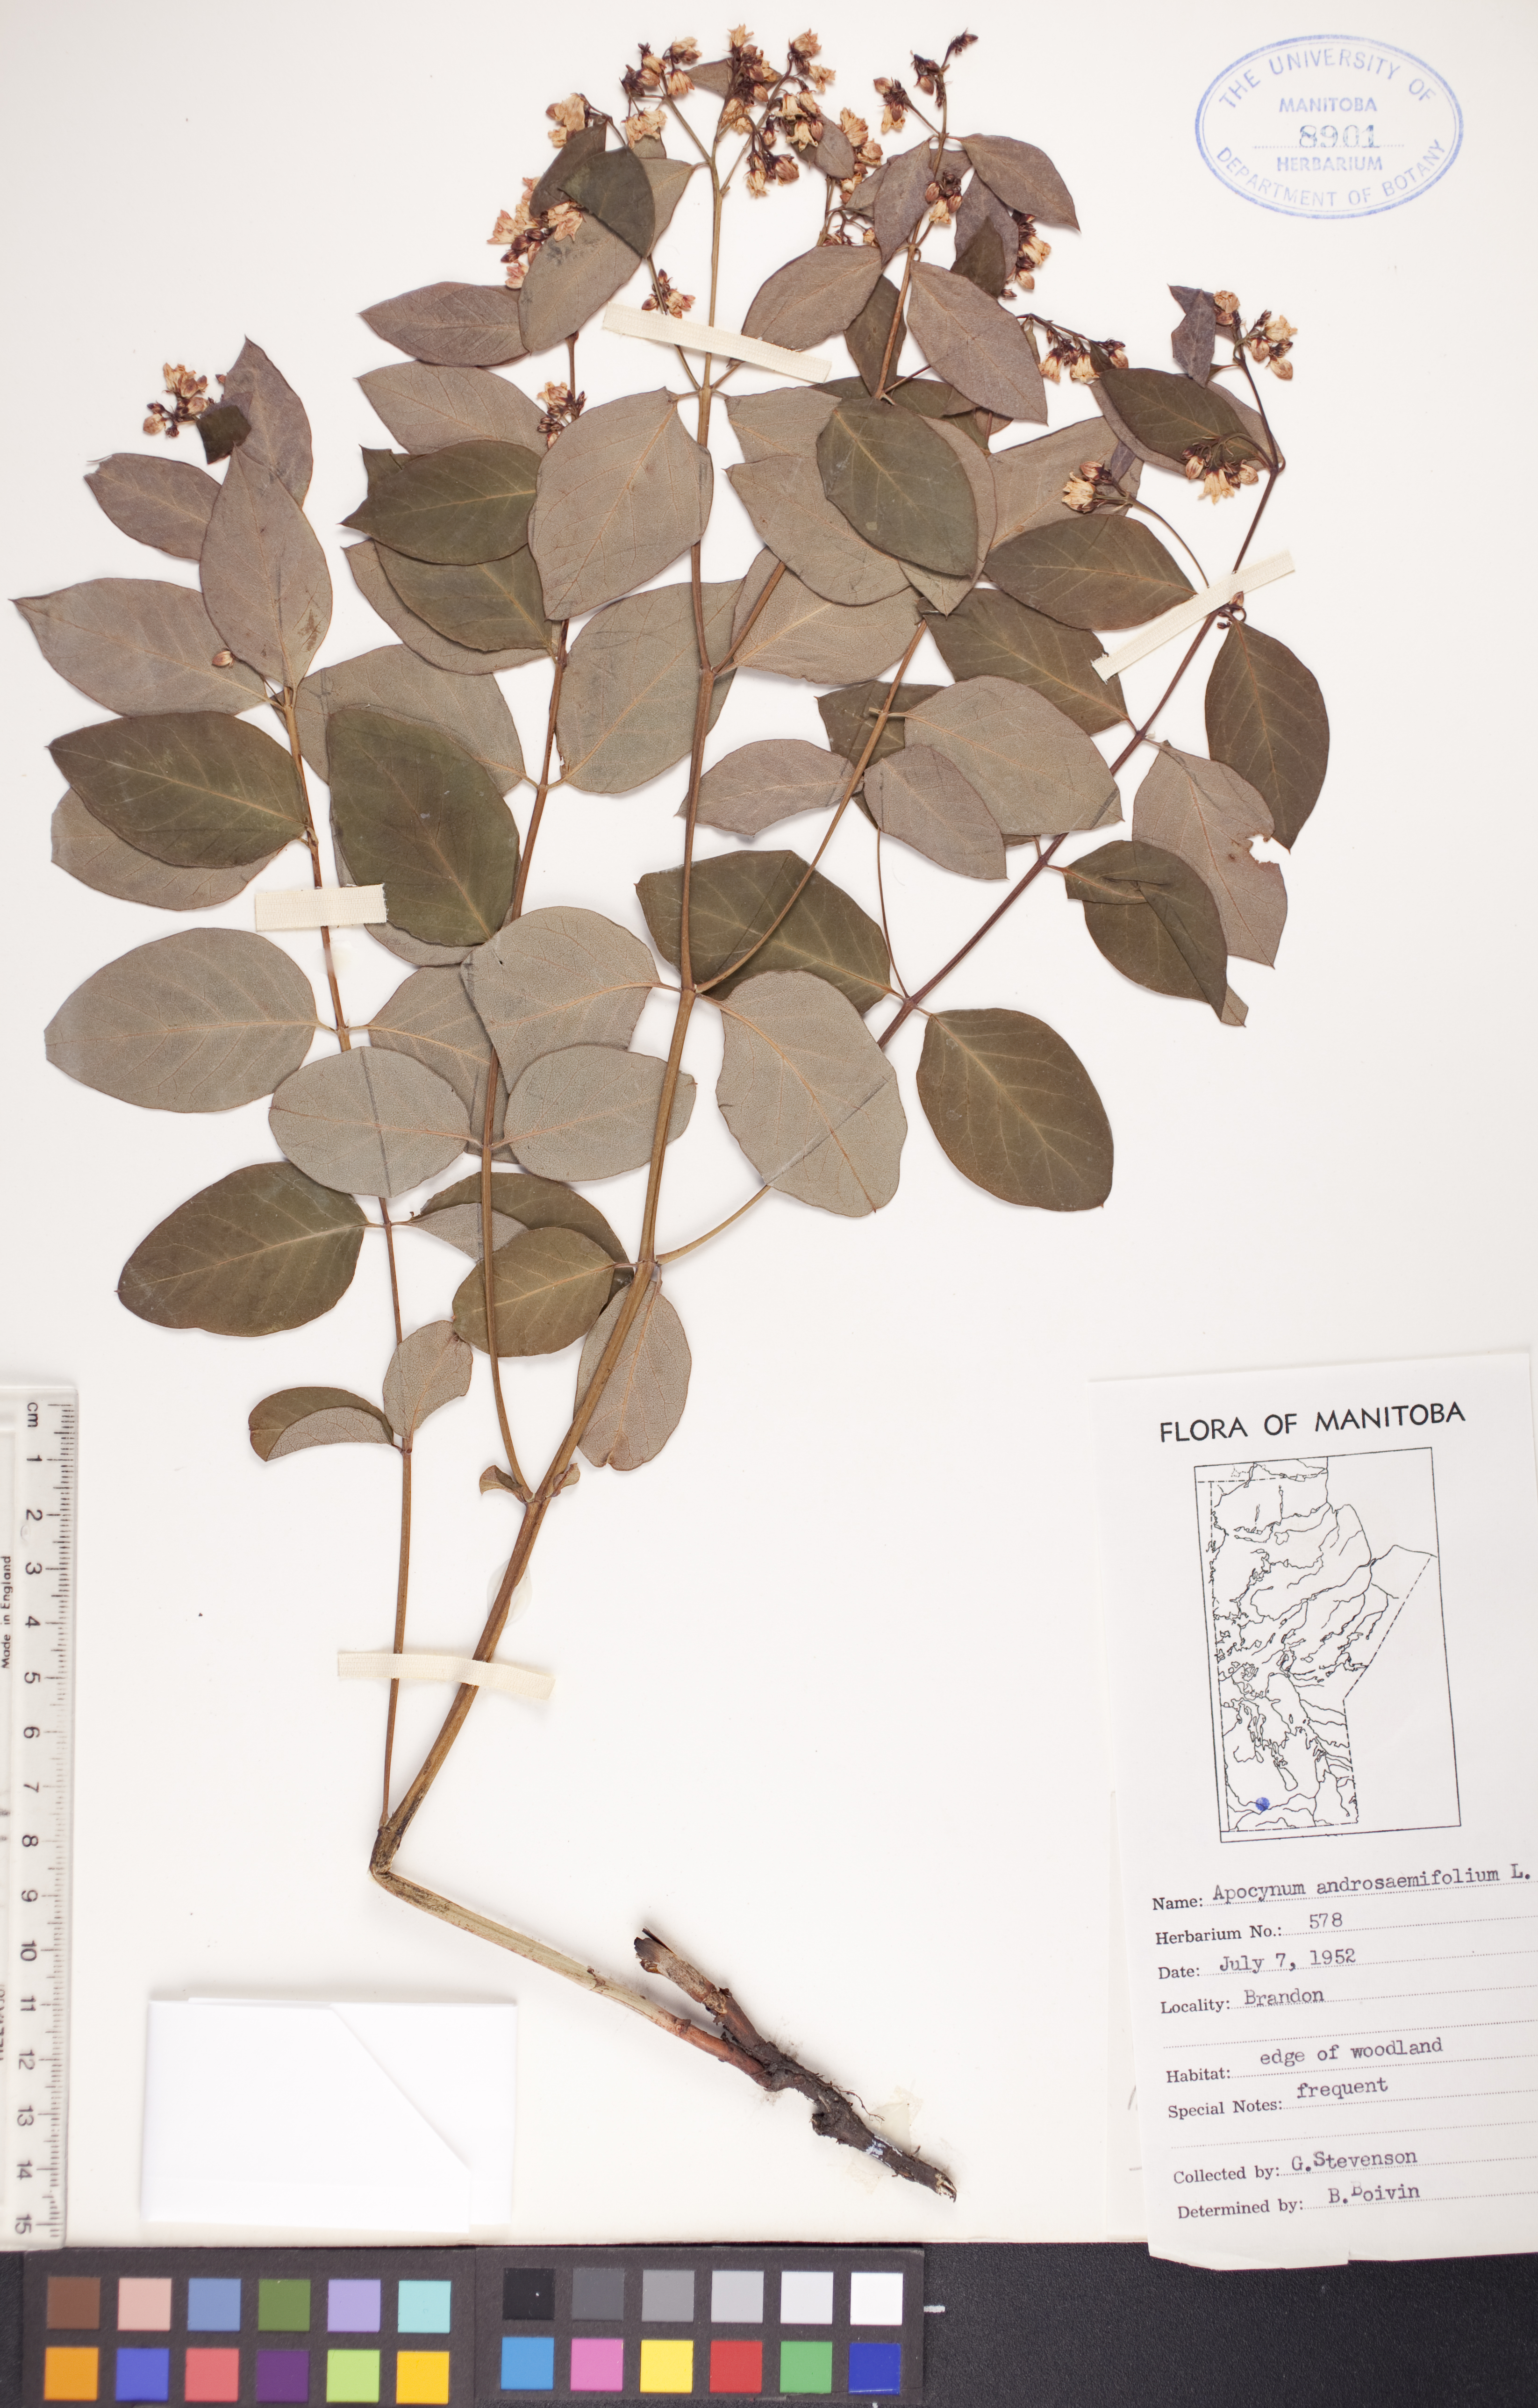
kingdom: Plantae
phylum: Tracheophyta
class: Magnoliopsida
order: Gentianales
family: Apocynaceae
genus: Apocynum
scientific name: Apocynum androsaemifolium
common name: Spreading dogbane
